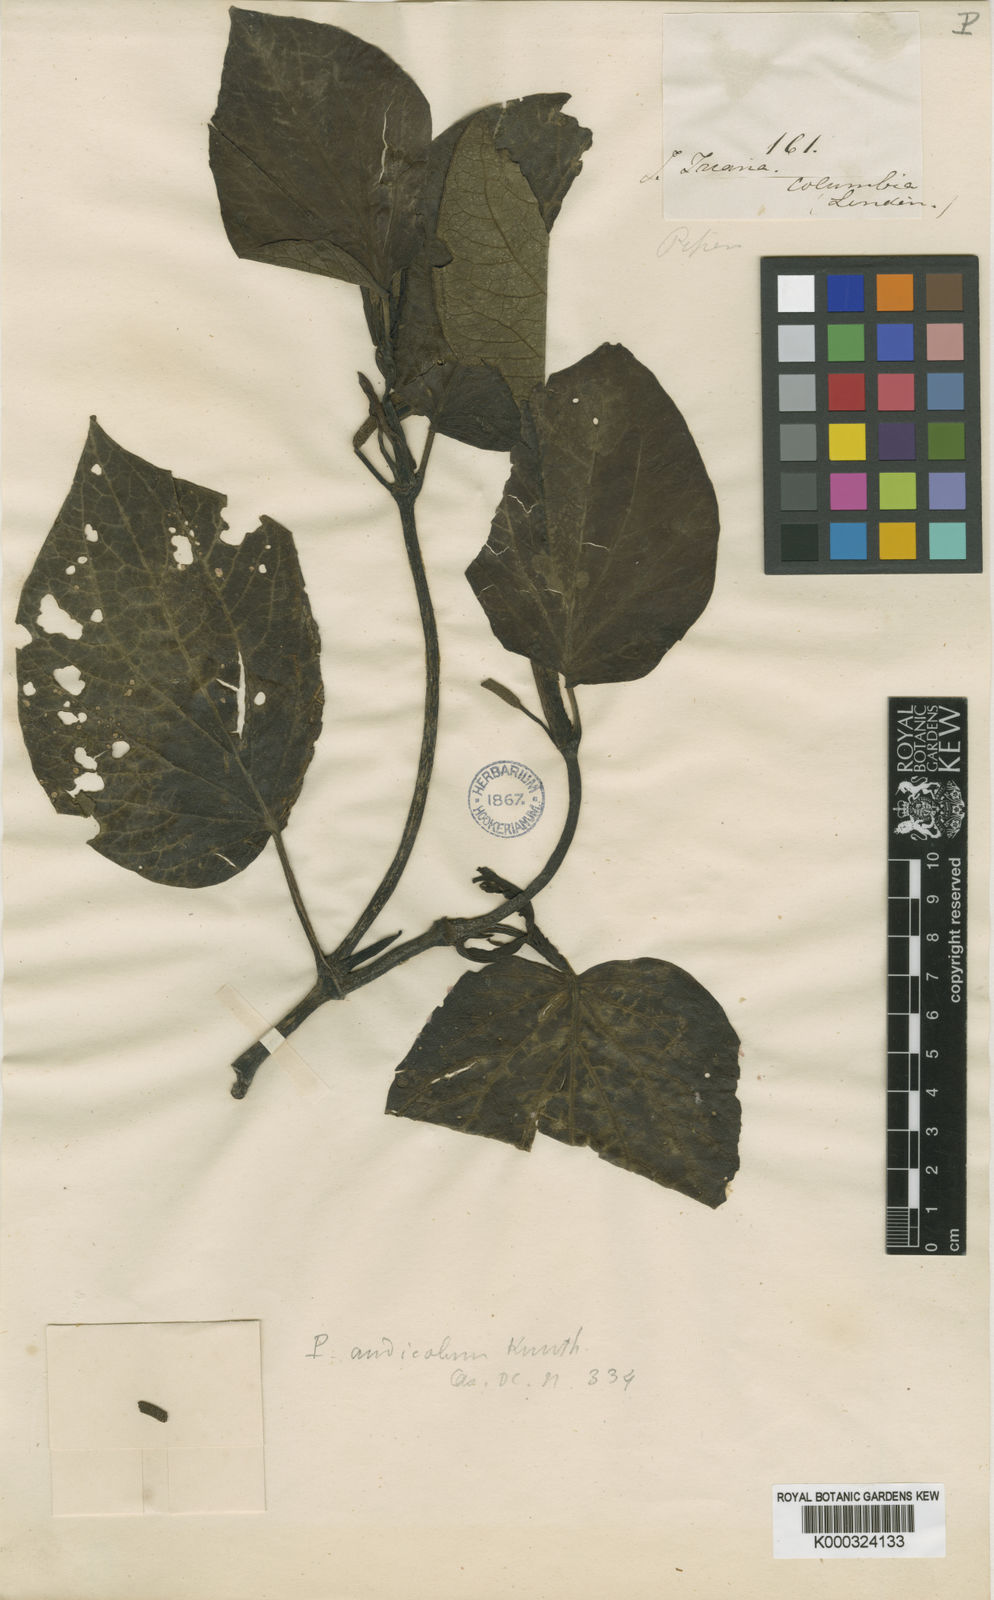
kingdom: Plantae
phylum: Tracheophyta
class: Magnoliopsida
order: Piperales
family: Piperaceae
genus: Piper
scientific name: Piper barbatum
